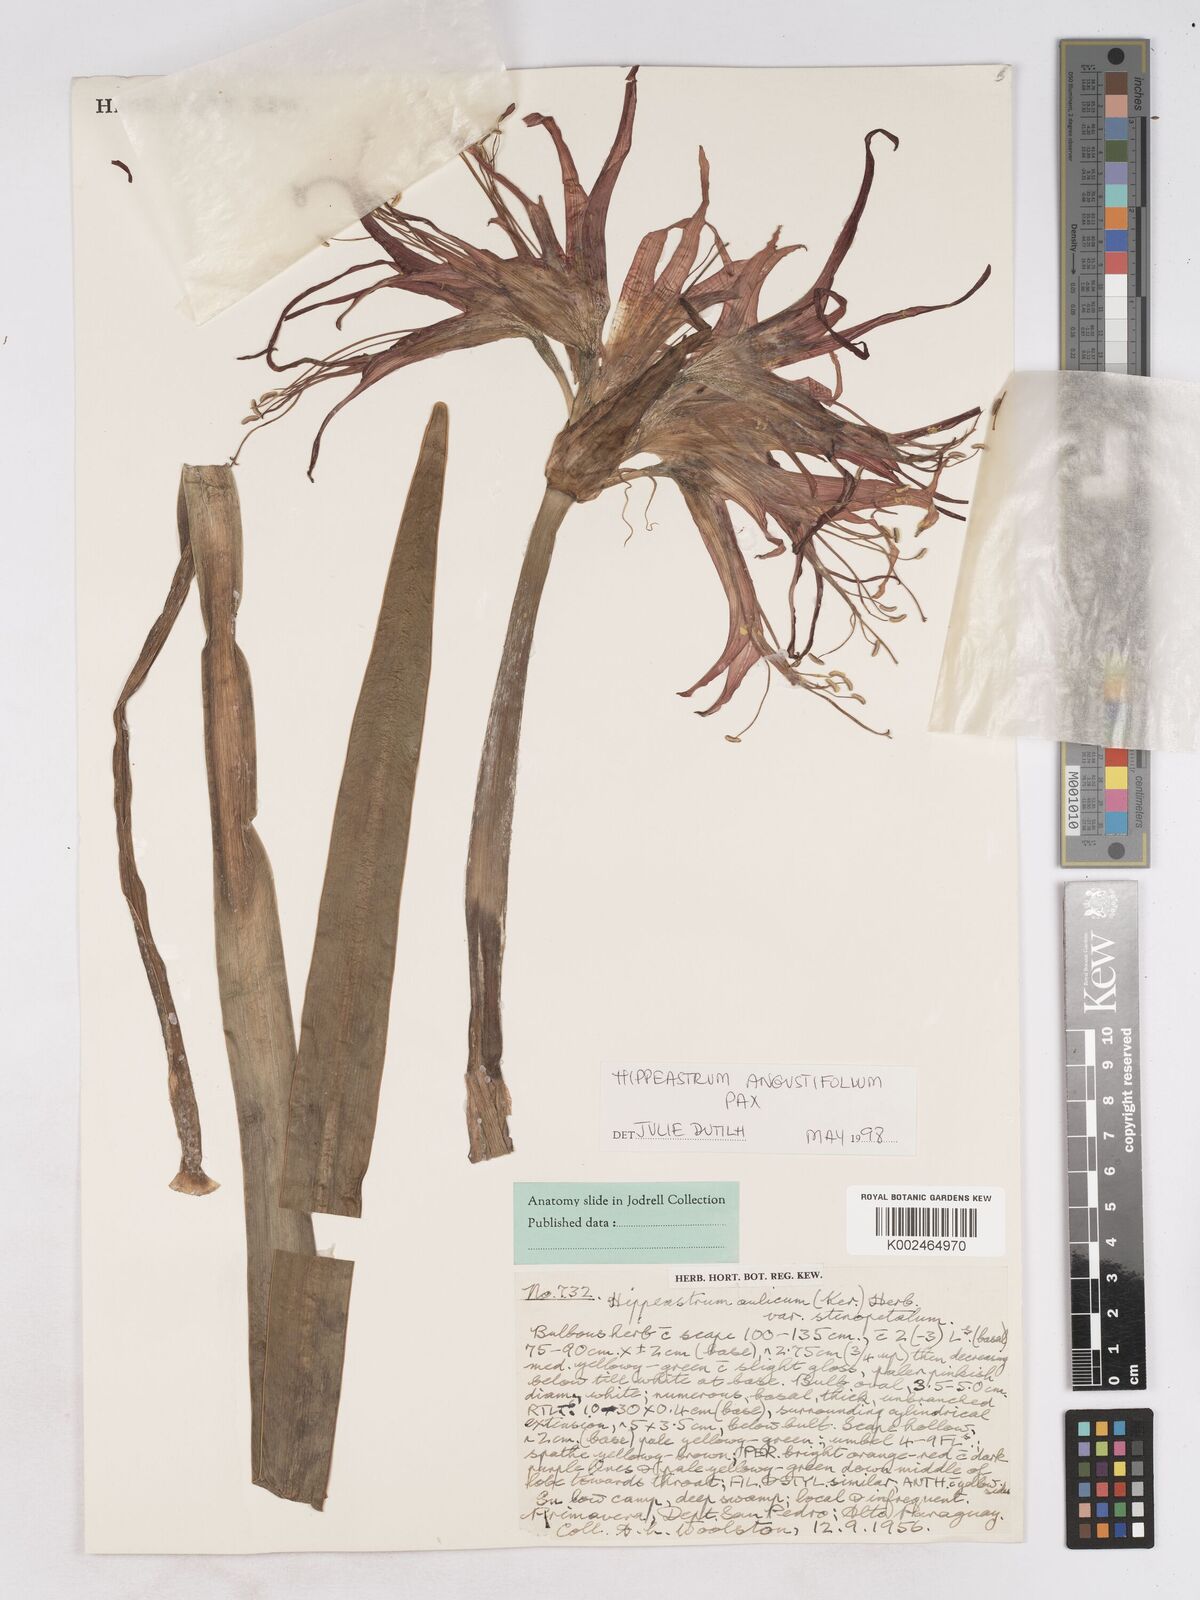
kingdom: Plantae
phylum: Tracheophyta
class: Liliopsida
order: Asparagales
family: Amaryllidaceae
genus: Hippeastrum
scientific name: Hippeastrum angustifolium
